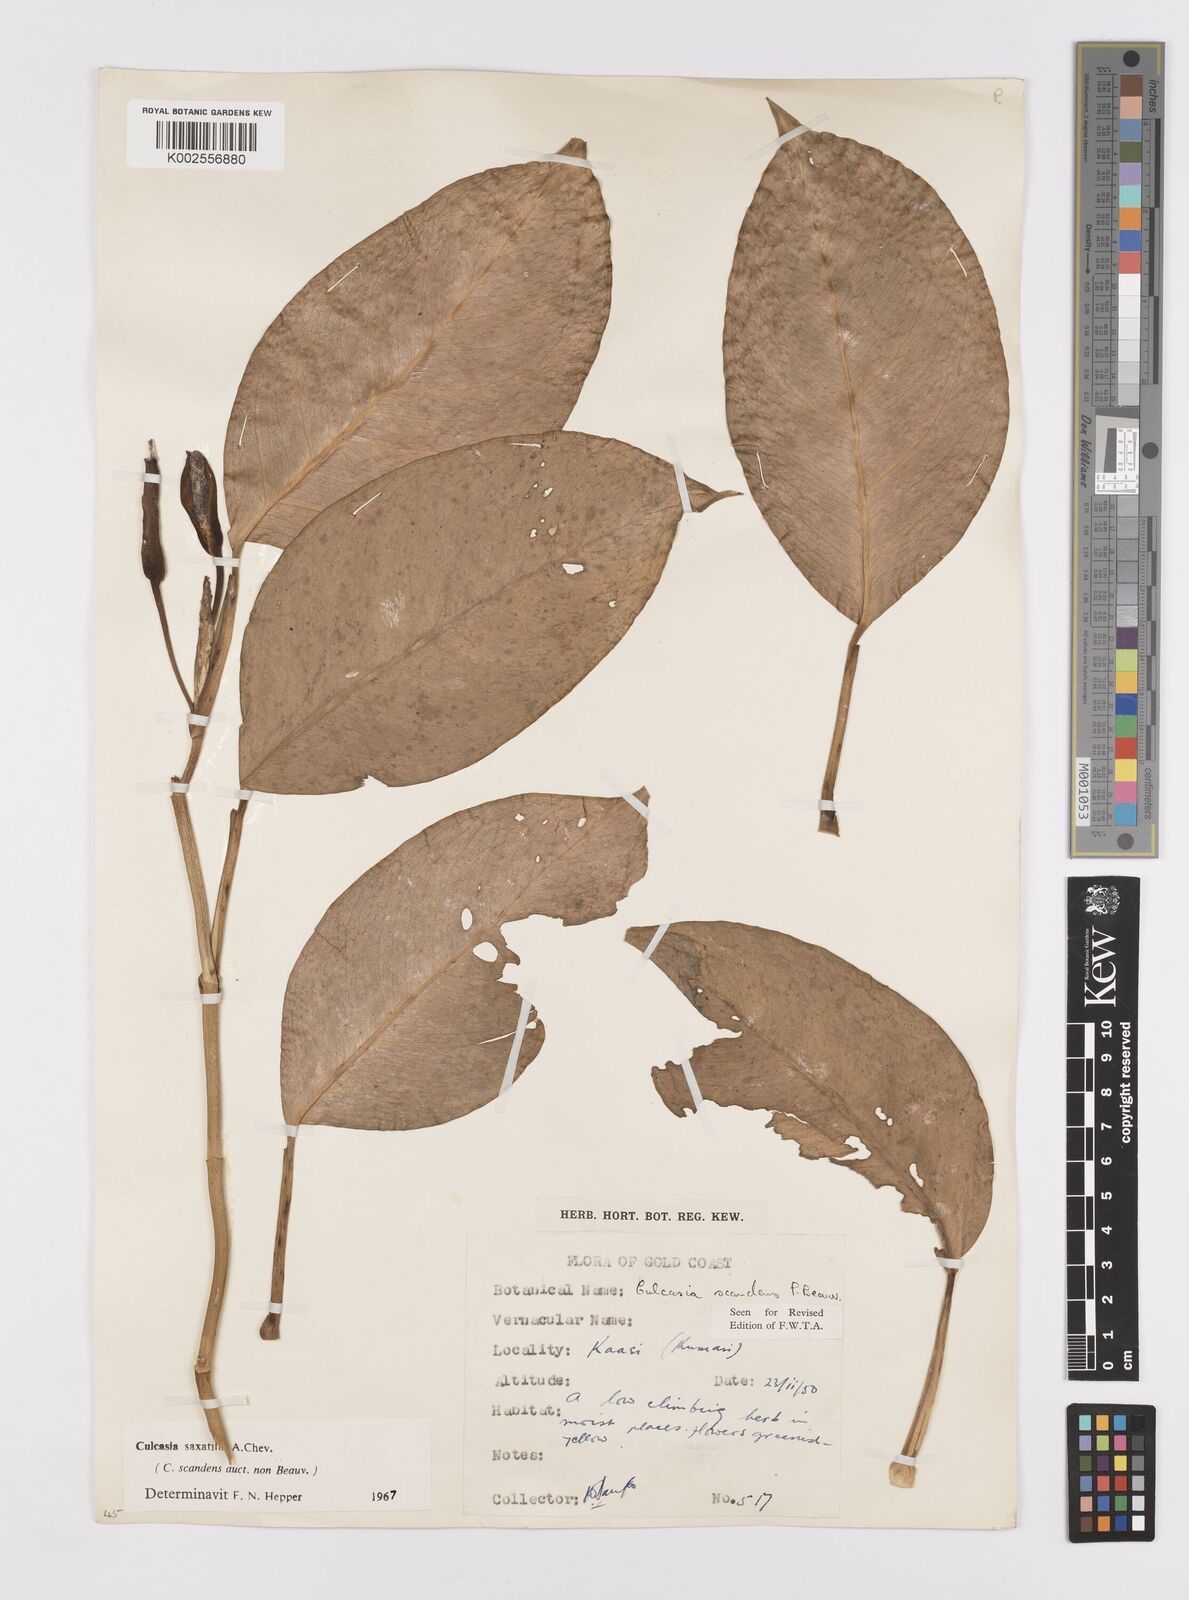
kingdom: Plantae
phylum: Tracheophyta
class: Liliopsida
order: Alismatales
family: Araceae
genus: Culcasia
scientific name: Culcasia scandens
